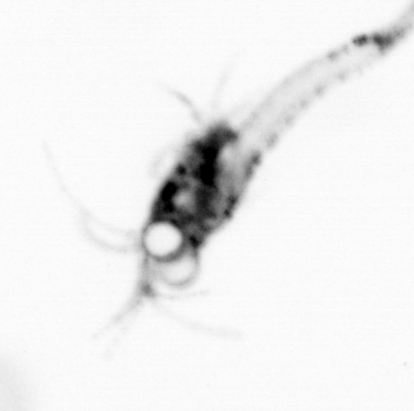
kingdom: Animalia
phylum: Arthropoda
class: Malacostraca
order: Decapoda
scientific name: Decapoda
